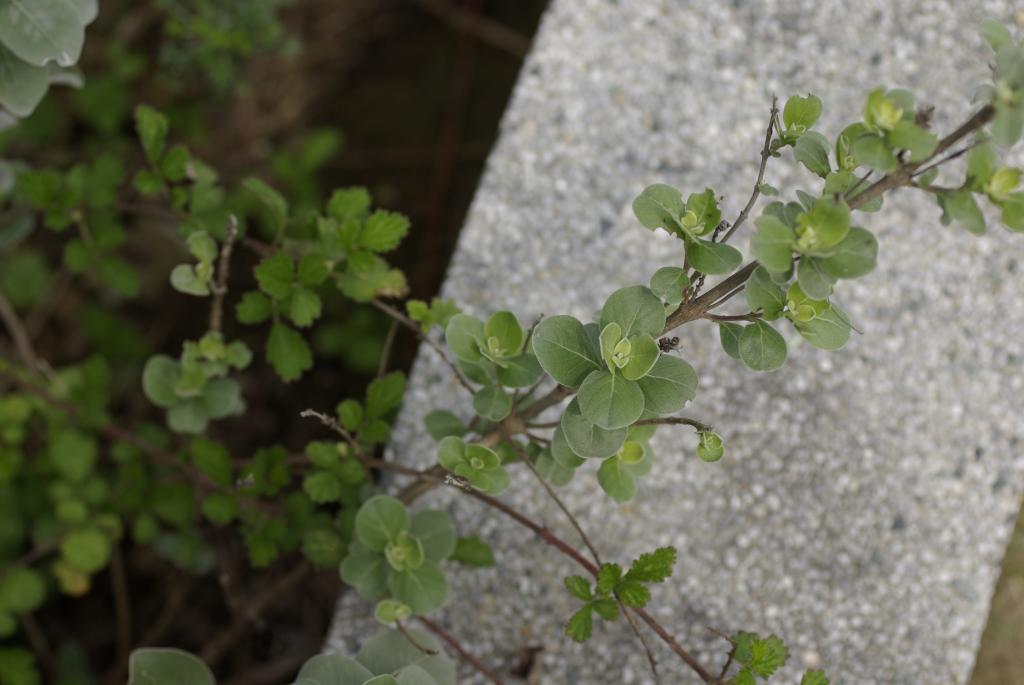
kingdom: Plantae
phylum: Tracheophyta
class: Magnoliopsida
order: Lamiales
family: Lamiaceae
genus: Vitex
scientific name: Vitex rotundifolia
